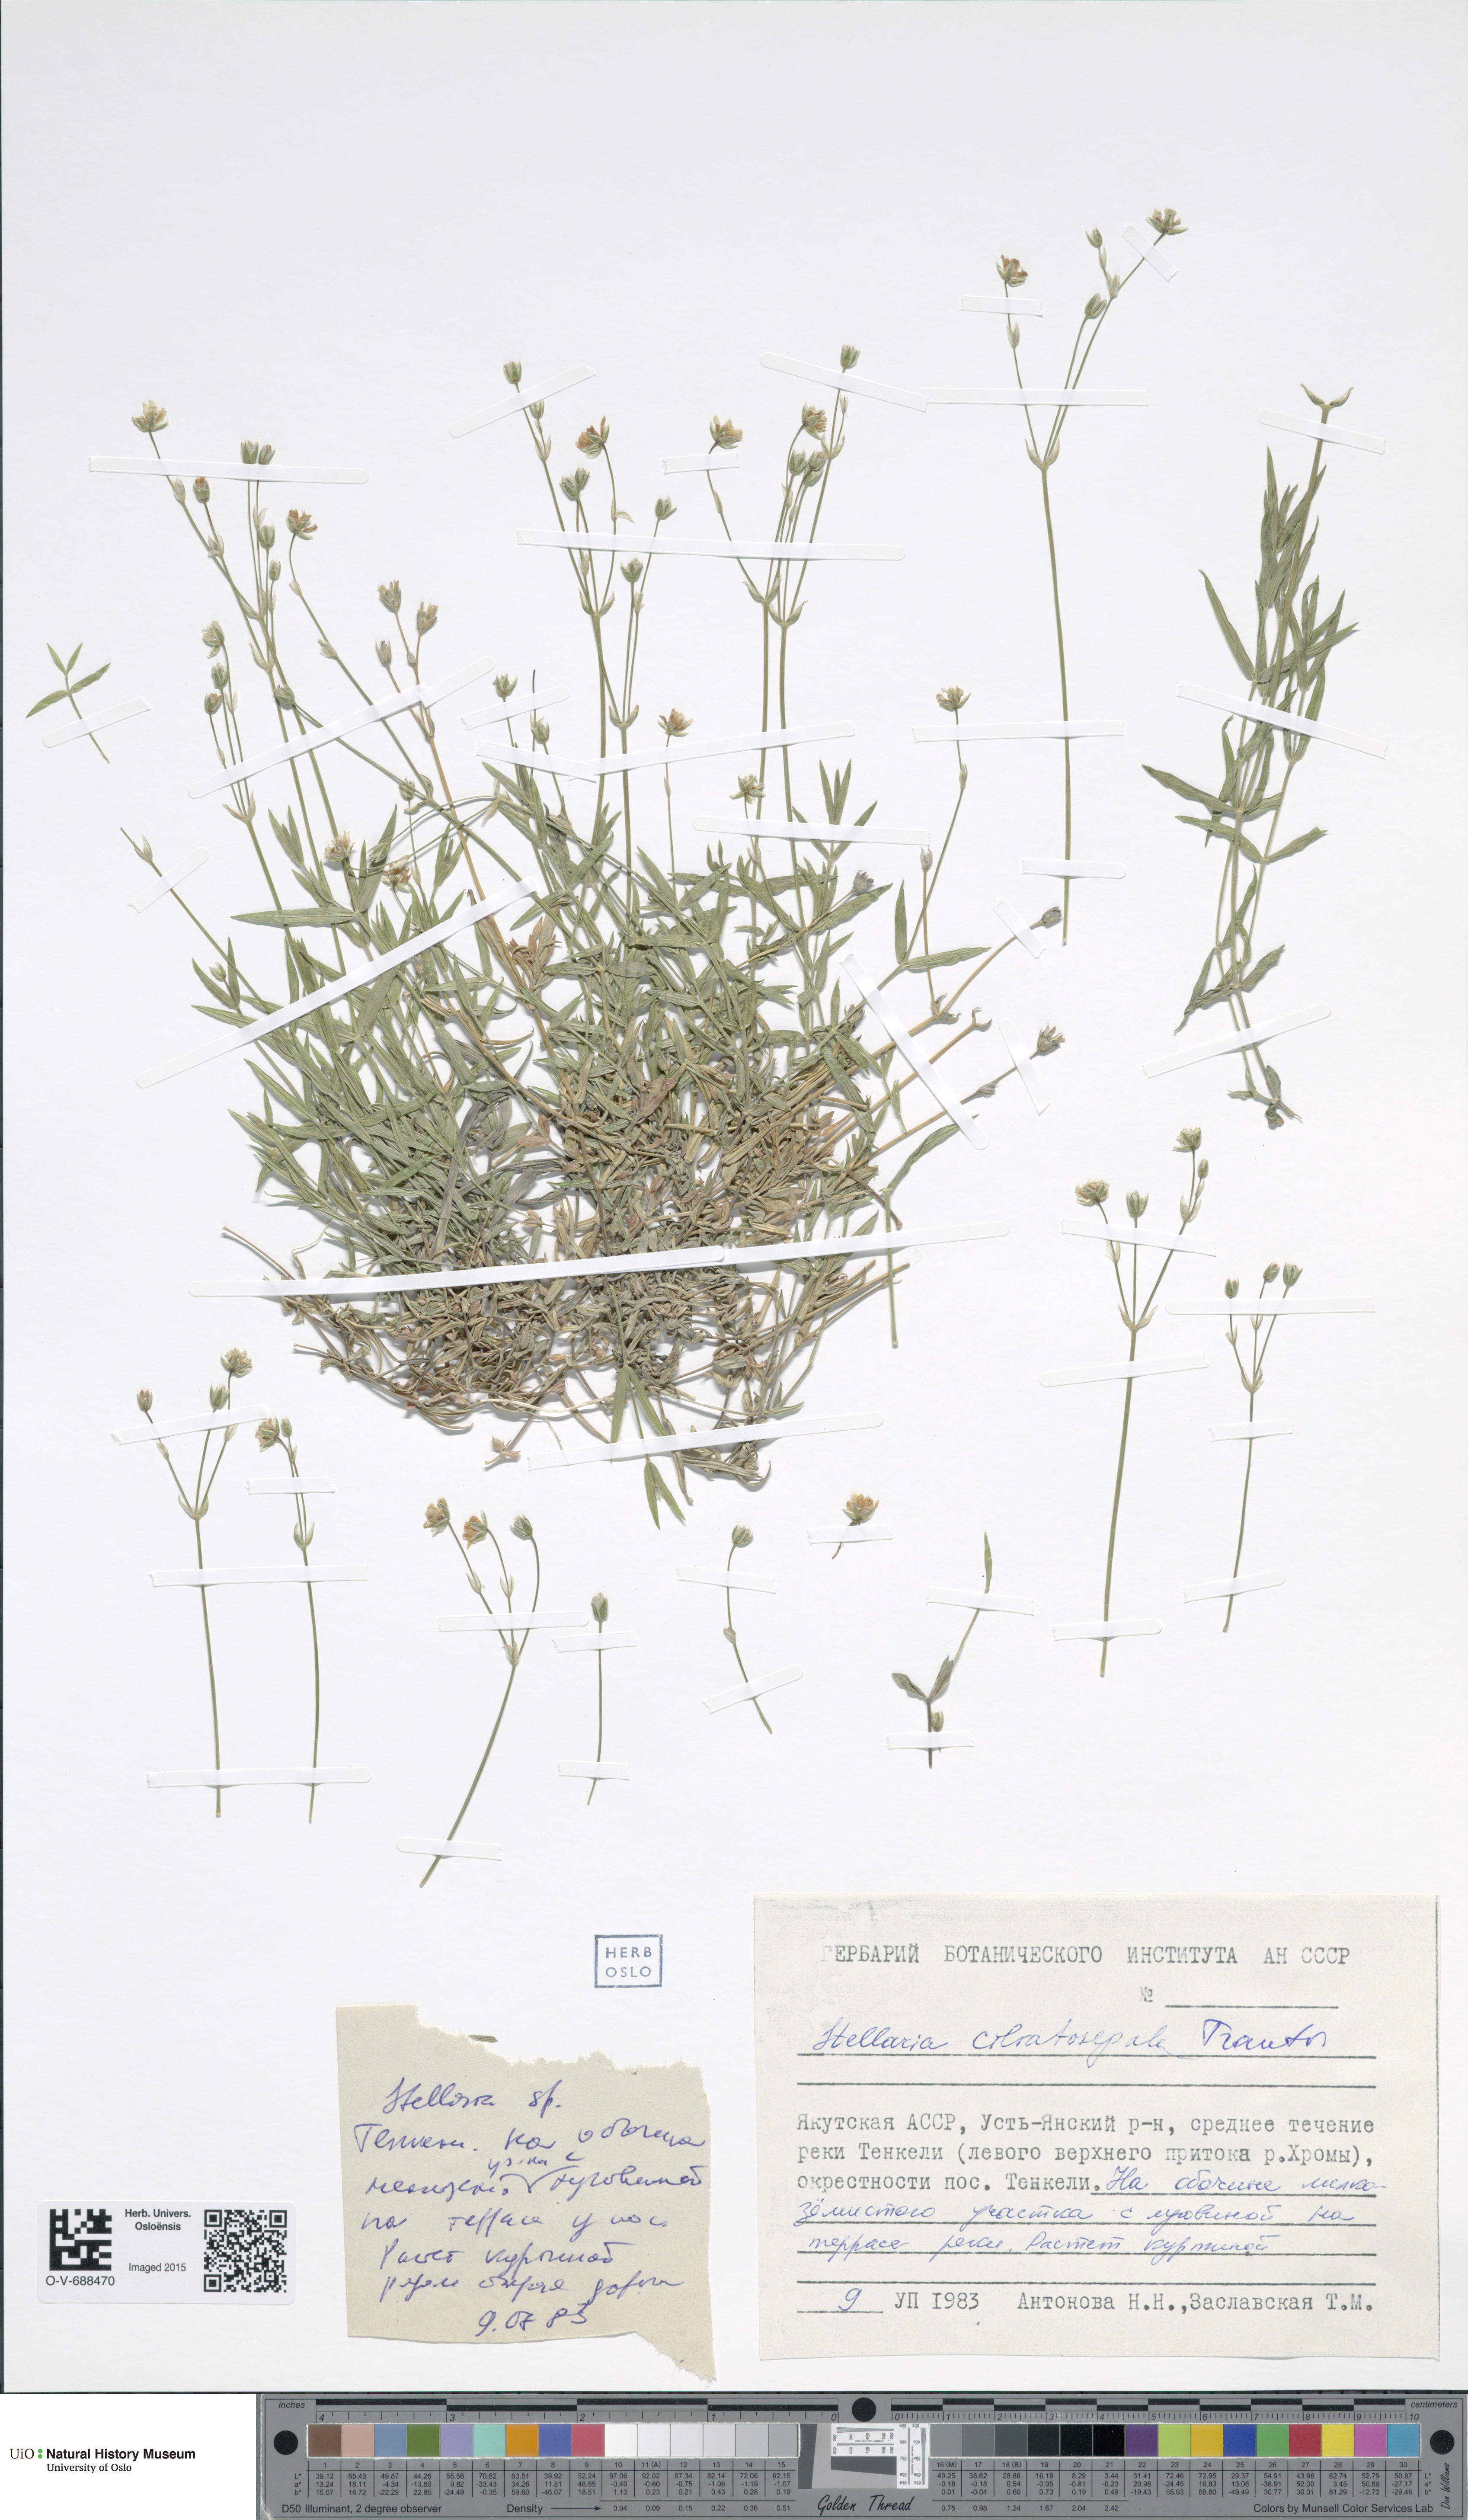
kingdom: Plantae
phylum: Tracheophyta
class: Magnoliopsida
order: Caryophyllales
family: Caryophyllaceae
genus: Stellaria
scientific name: Stellaria longipes
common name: Goldie's starwort
